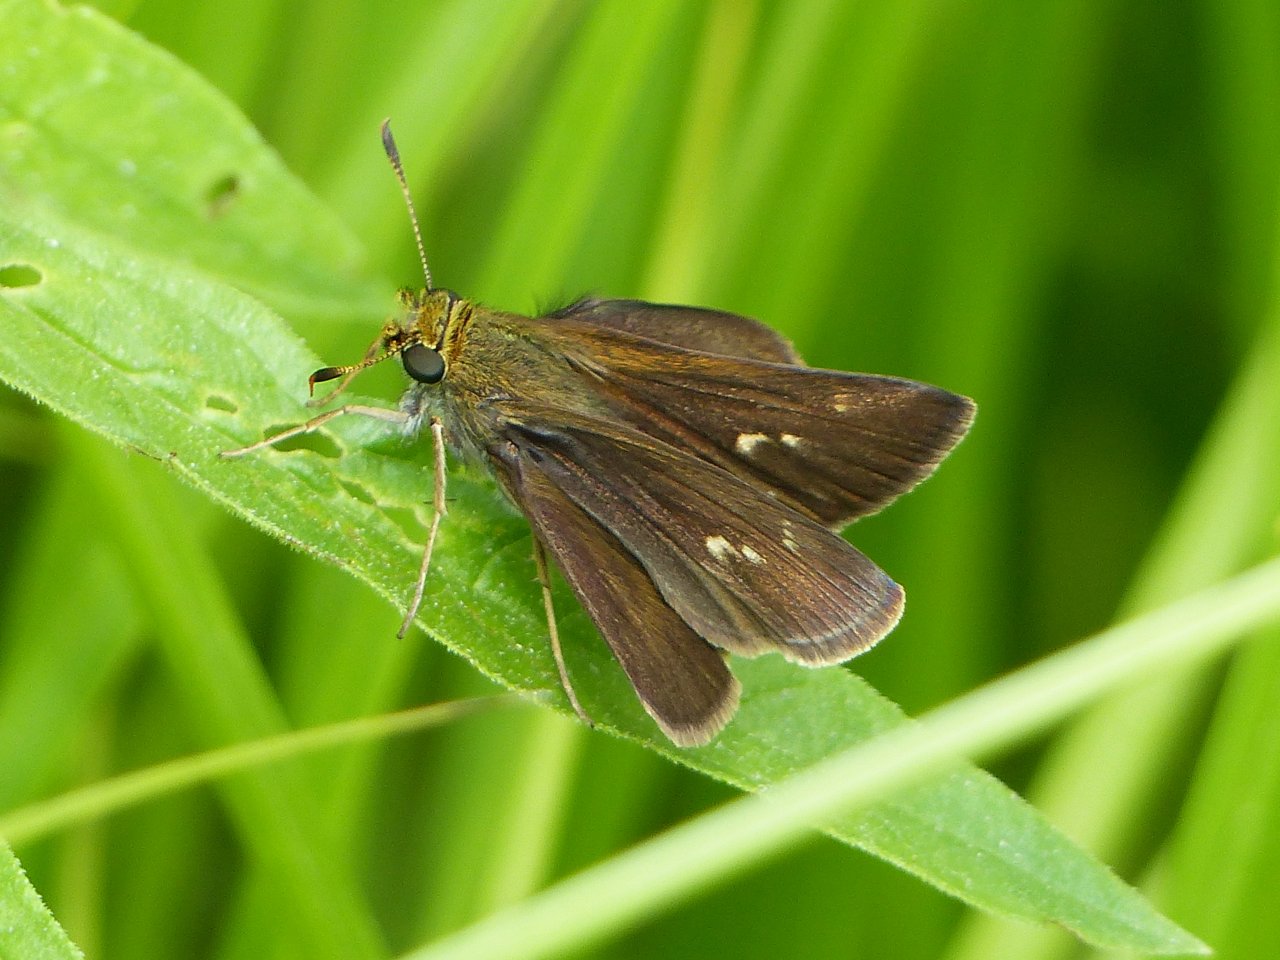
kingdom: Animalia
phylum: Arthropoda
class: Insecta
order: Lepidoptera
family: Hesperiidae
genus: Euphyes
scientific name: Euphyes vestris
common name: Dun Skipper
